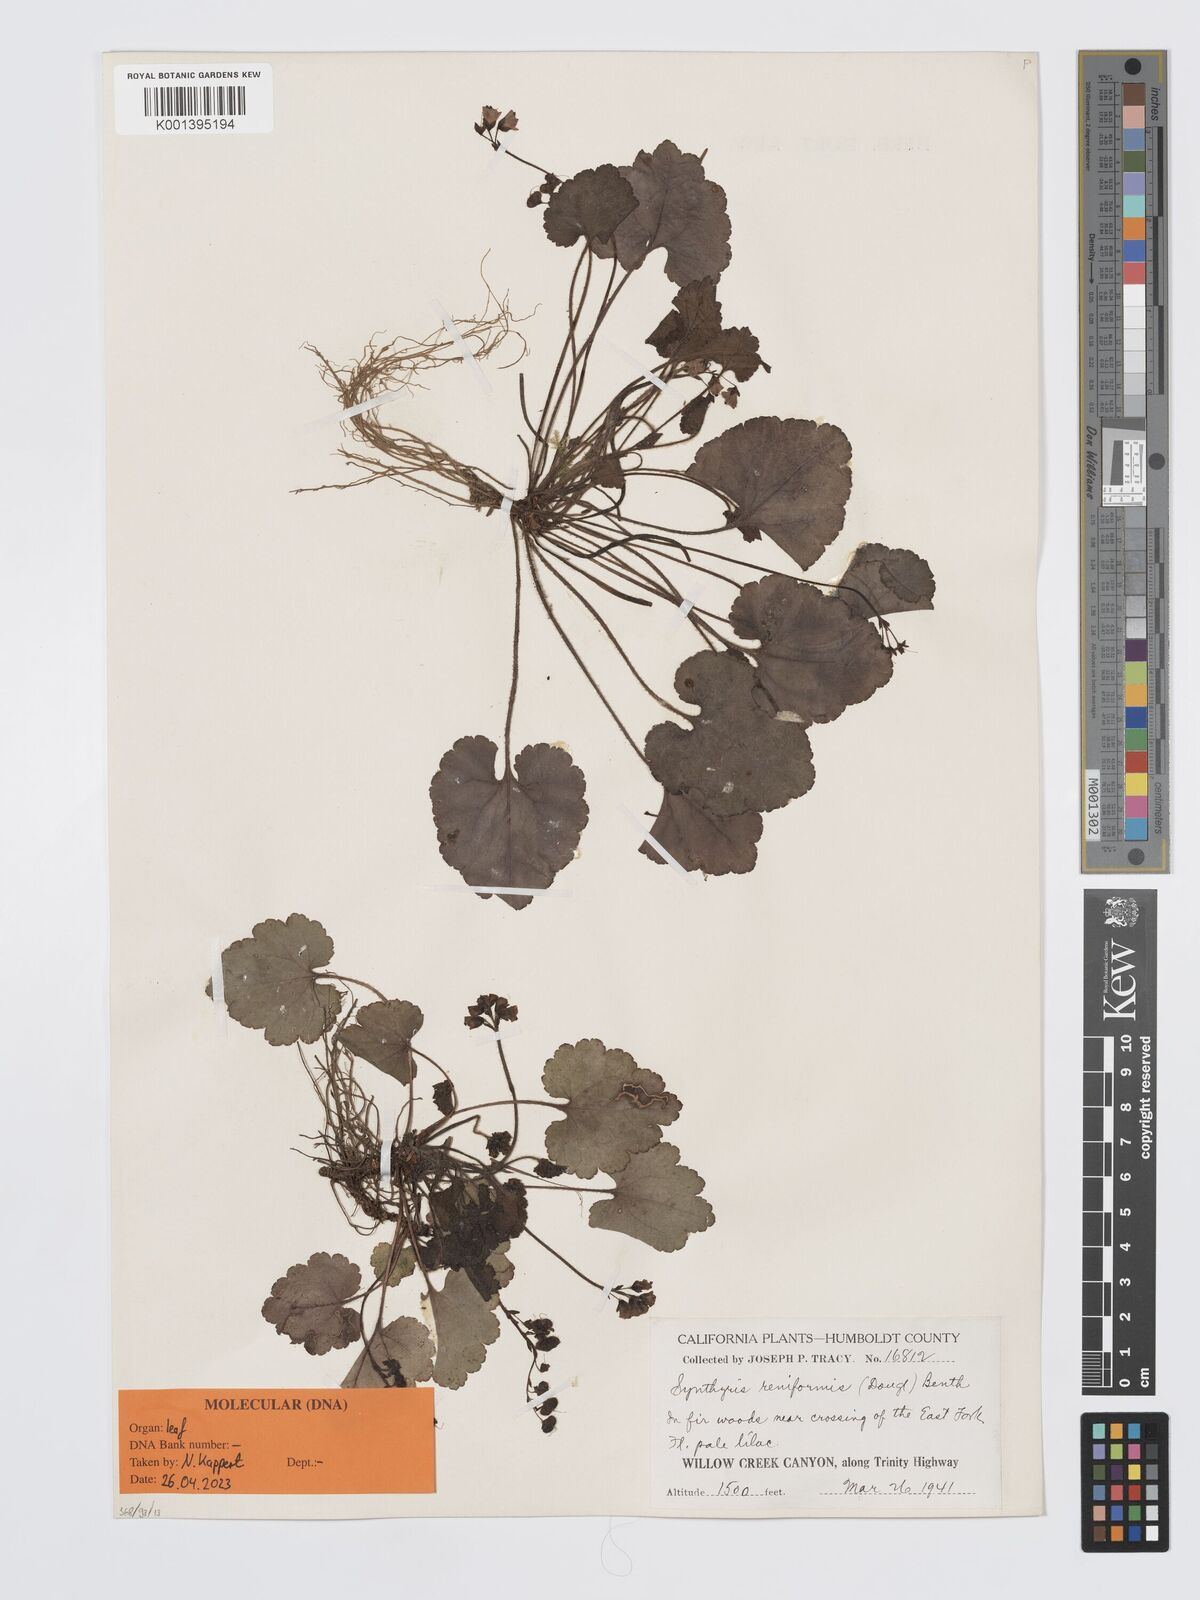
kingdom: Plantae
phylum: Tracheophyta
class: Magnoliopsida
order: Lamiales
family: Plantaginaceae
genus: Synthyris
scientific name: Synthyris reniformis
